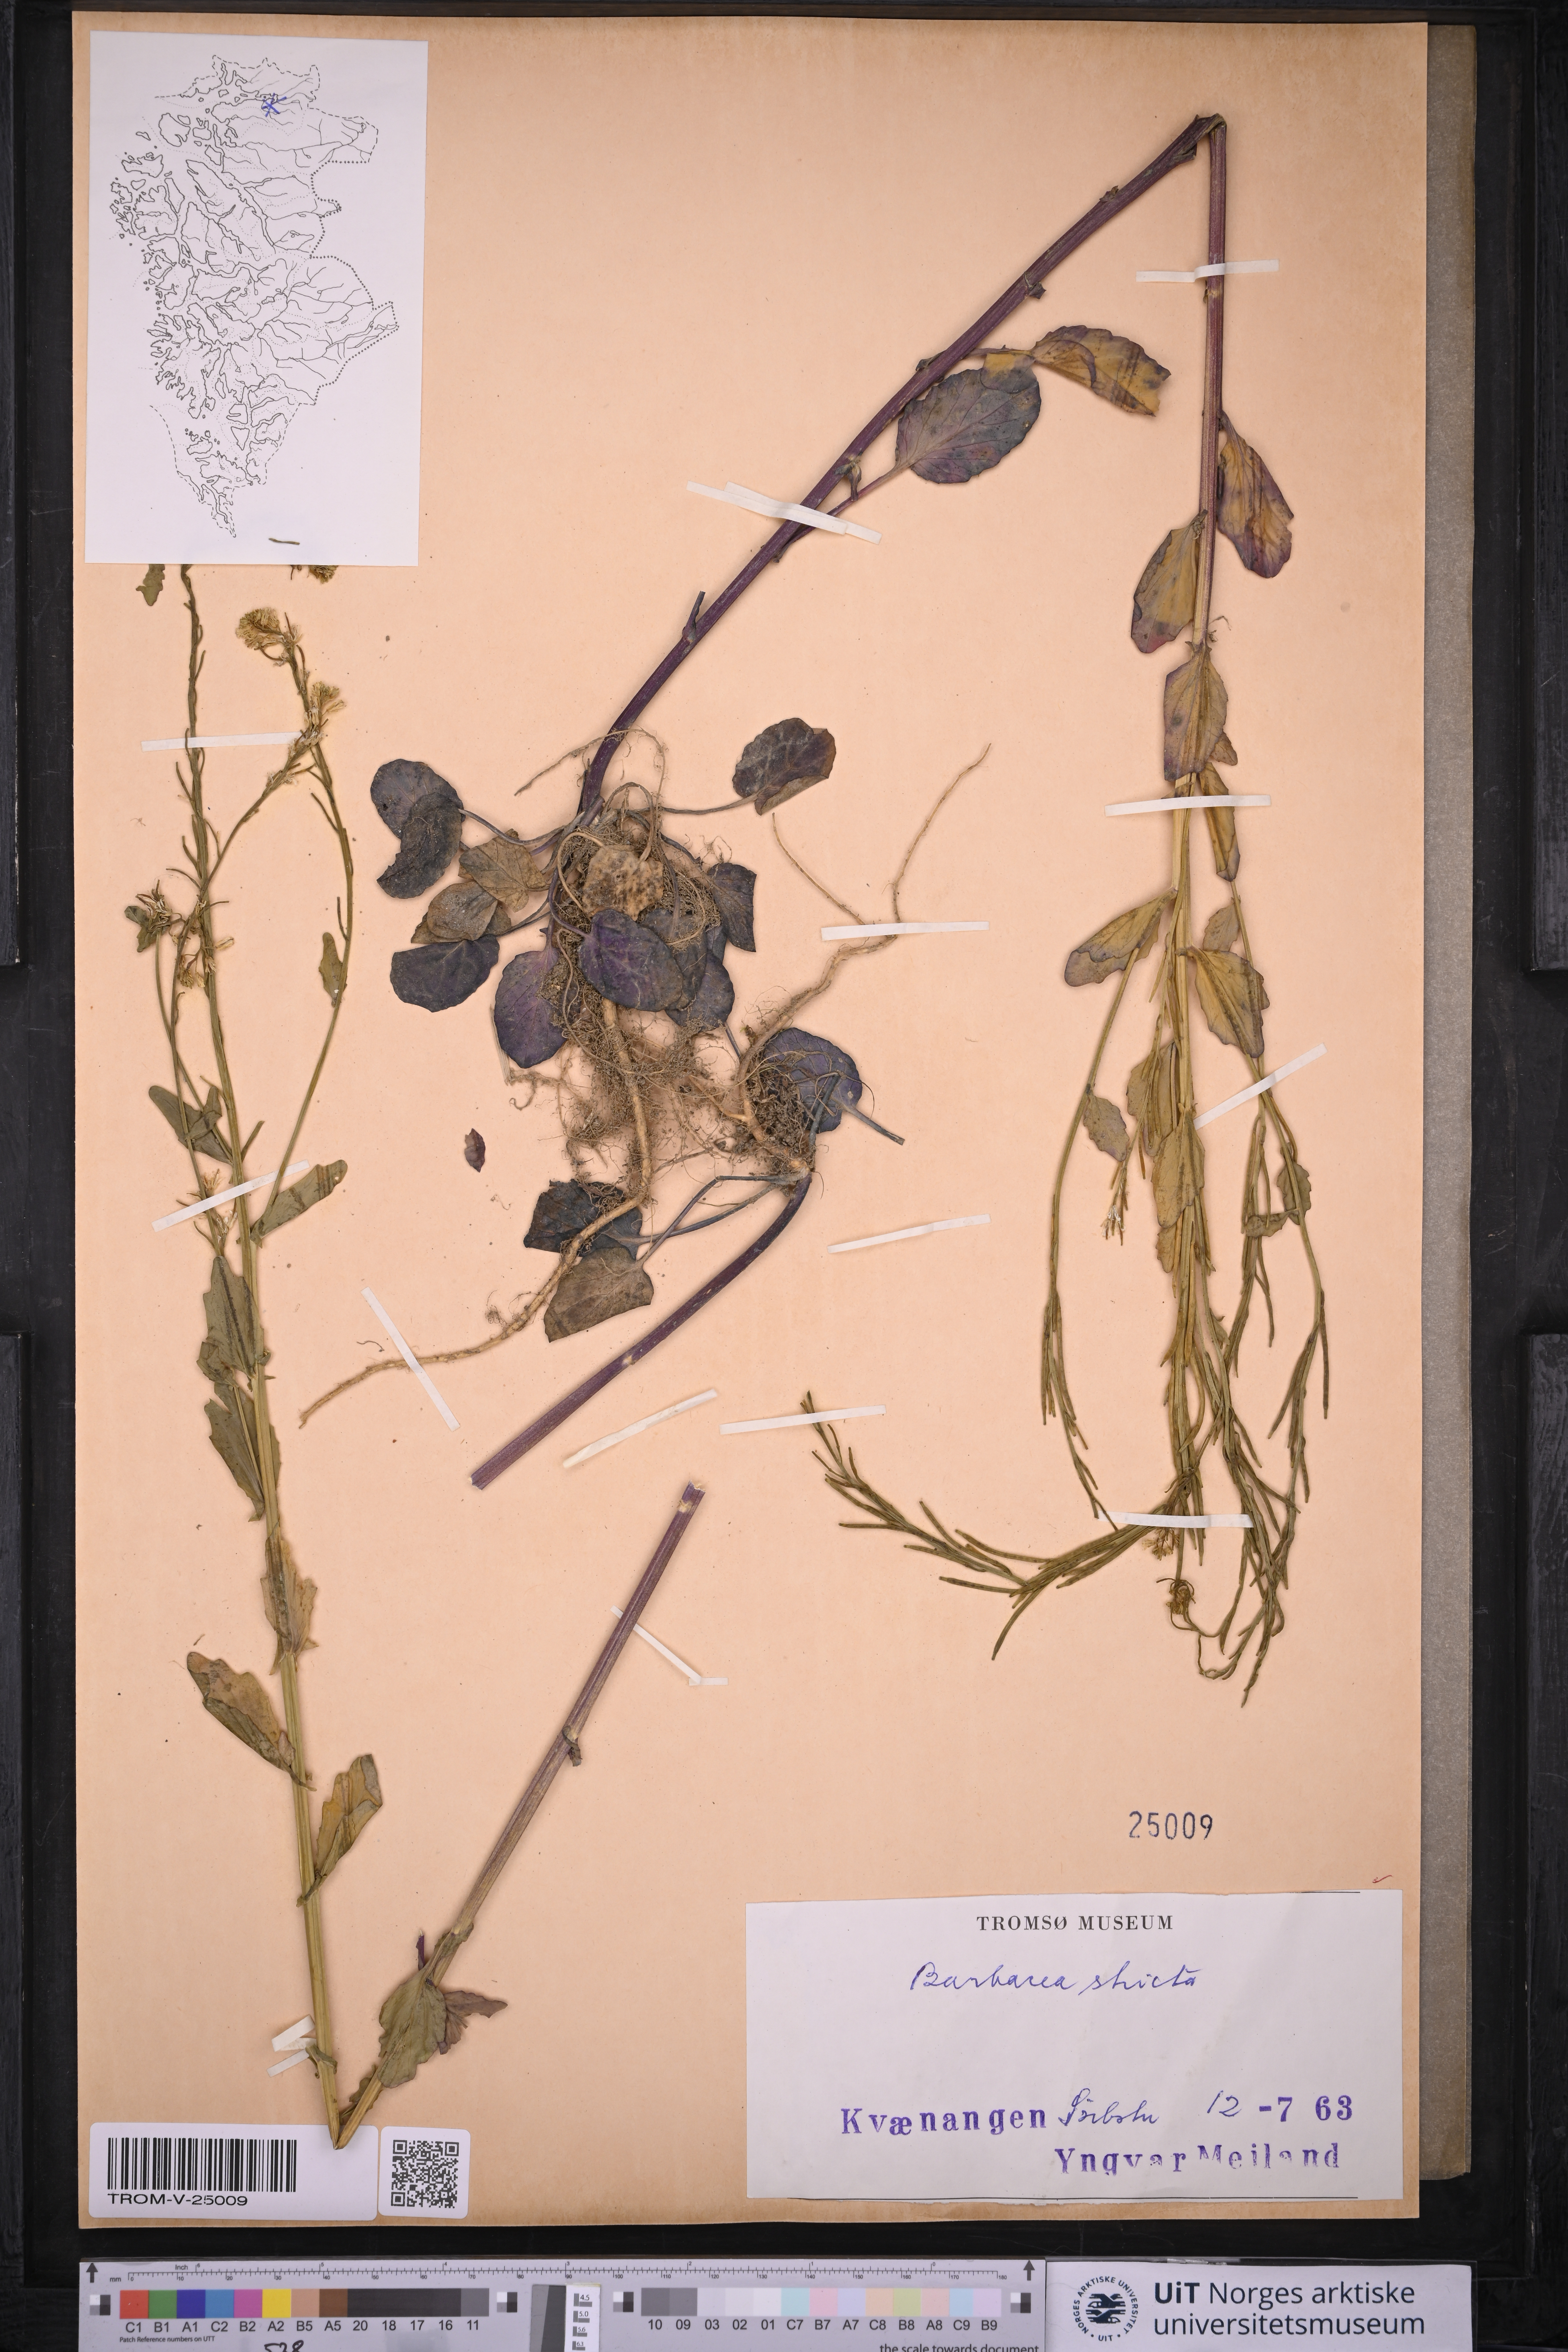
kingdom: Plantae
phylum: Tracheophyta
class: Magnoliopsida
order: Brassicales
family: Brassicaceae
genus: Barbarea
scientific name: Barbarea stricta
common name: Small-flowered winter-cress
